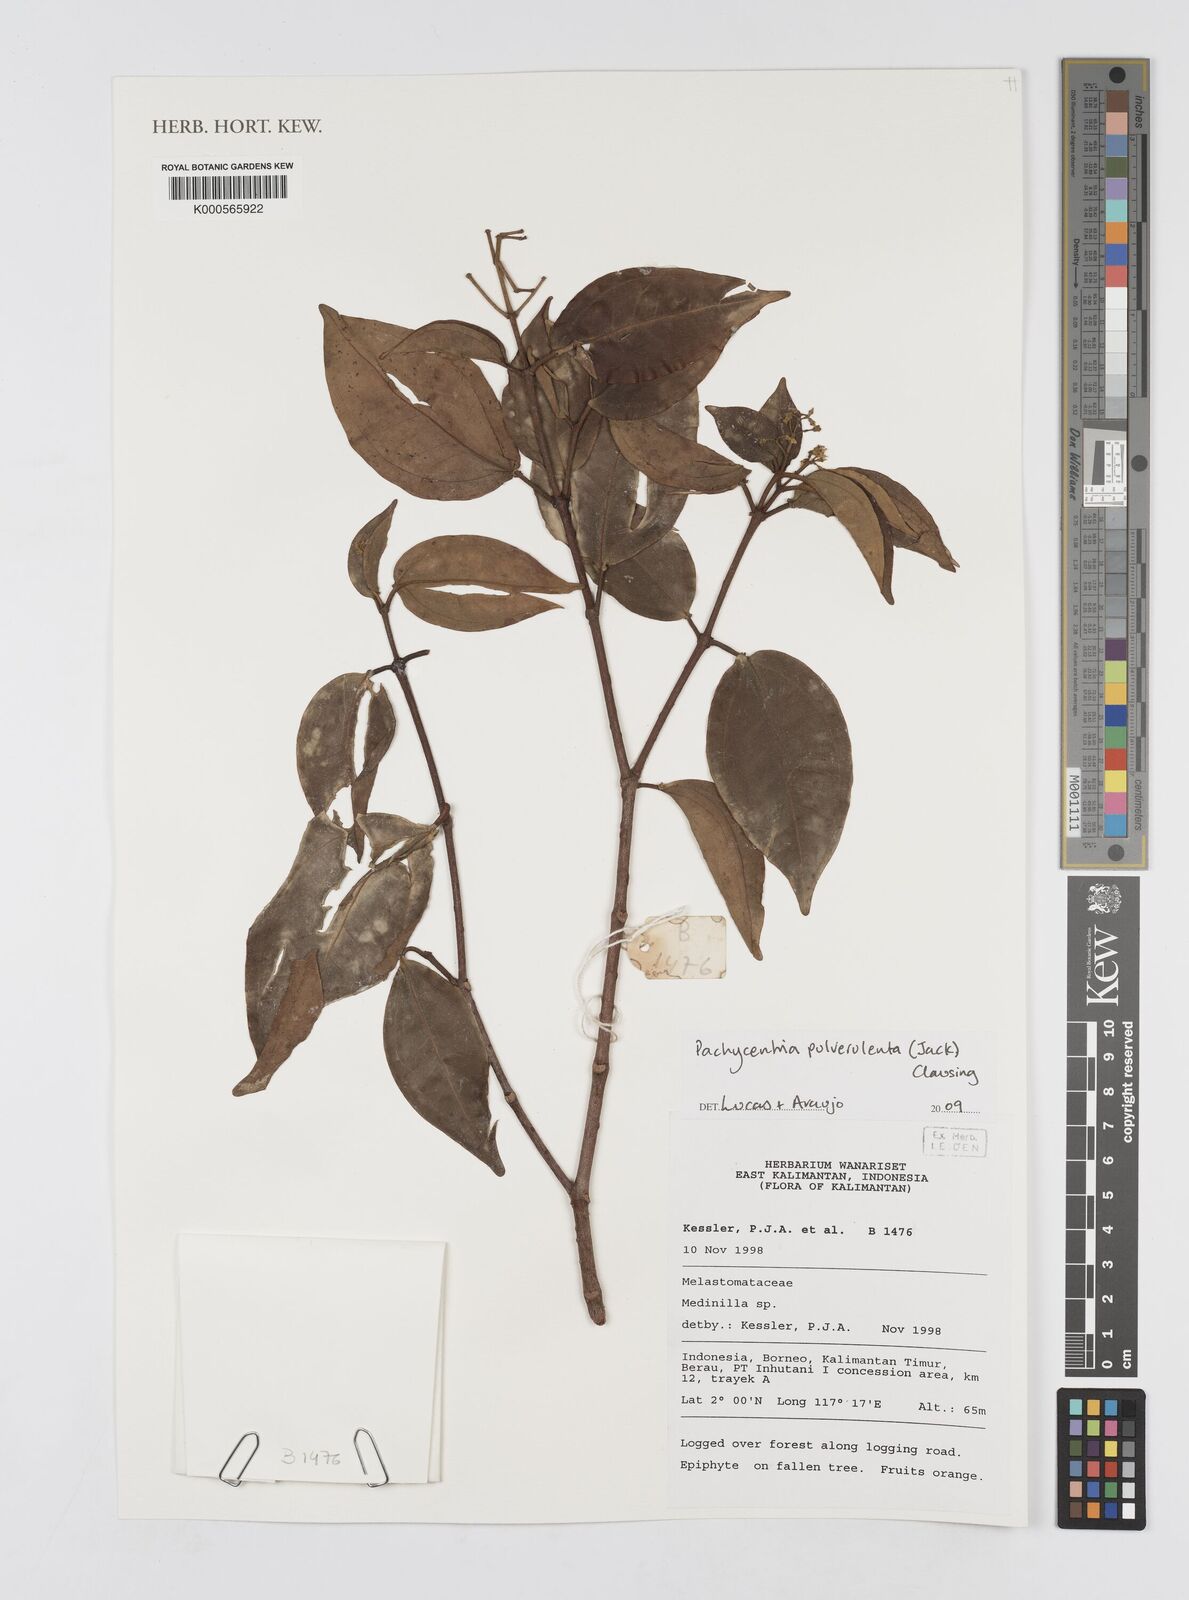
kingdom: Plantae
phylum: Tracheophyta
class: Magnoliopsida
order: Myrtales
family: Melastomataceae
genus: Pachycentria
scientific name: Pachycentria pulverulenta
